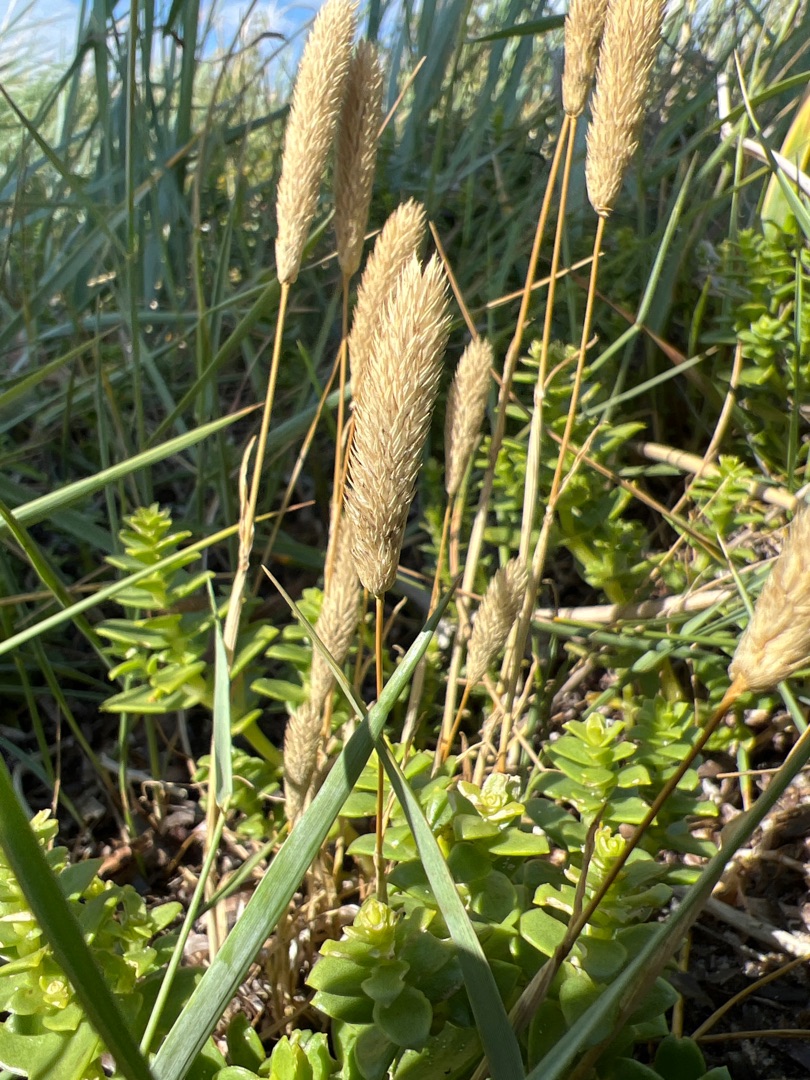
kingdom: Plantae
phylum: Tracheophyta
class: Liliopsida
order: Poales
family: Poaceae
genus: Phleum
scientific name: Phleum arenarium
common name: Sand-rottehale
